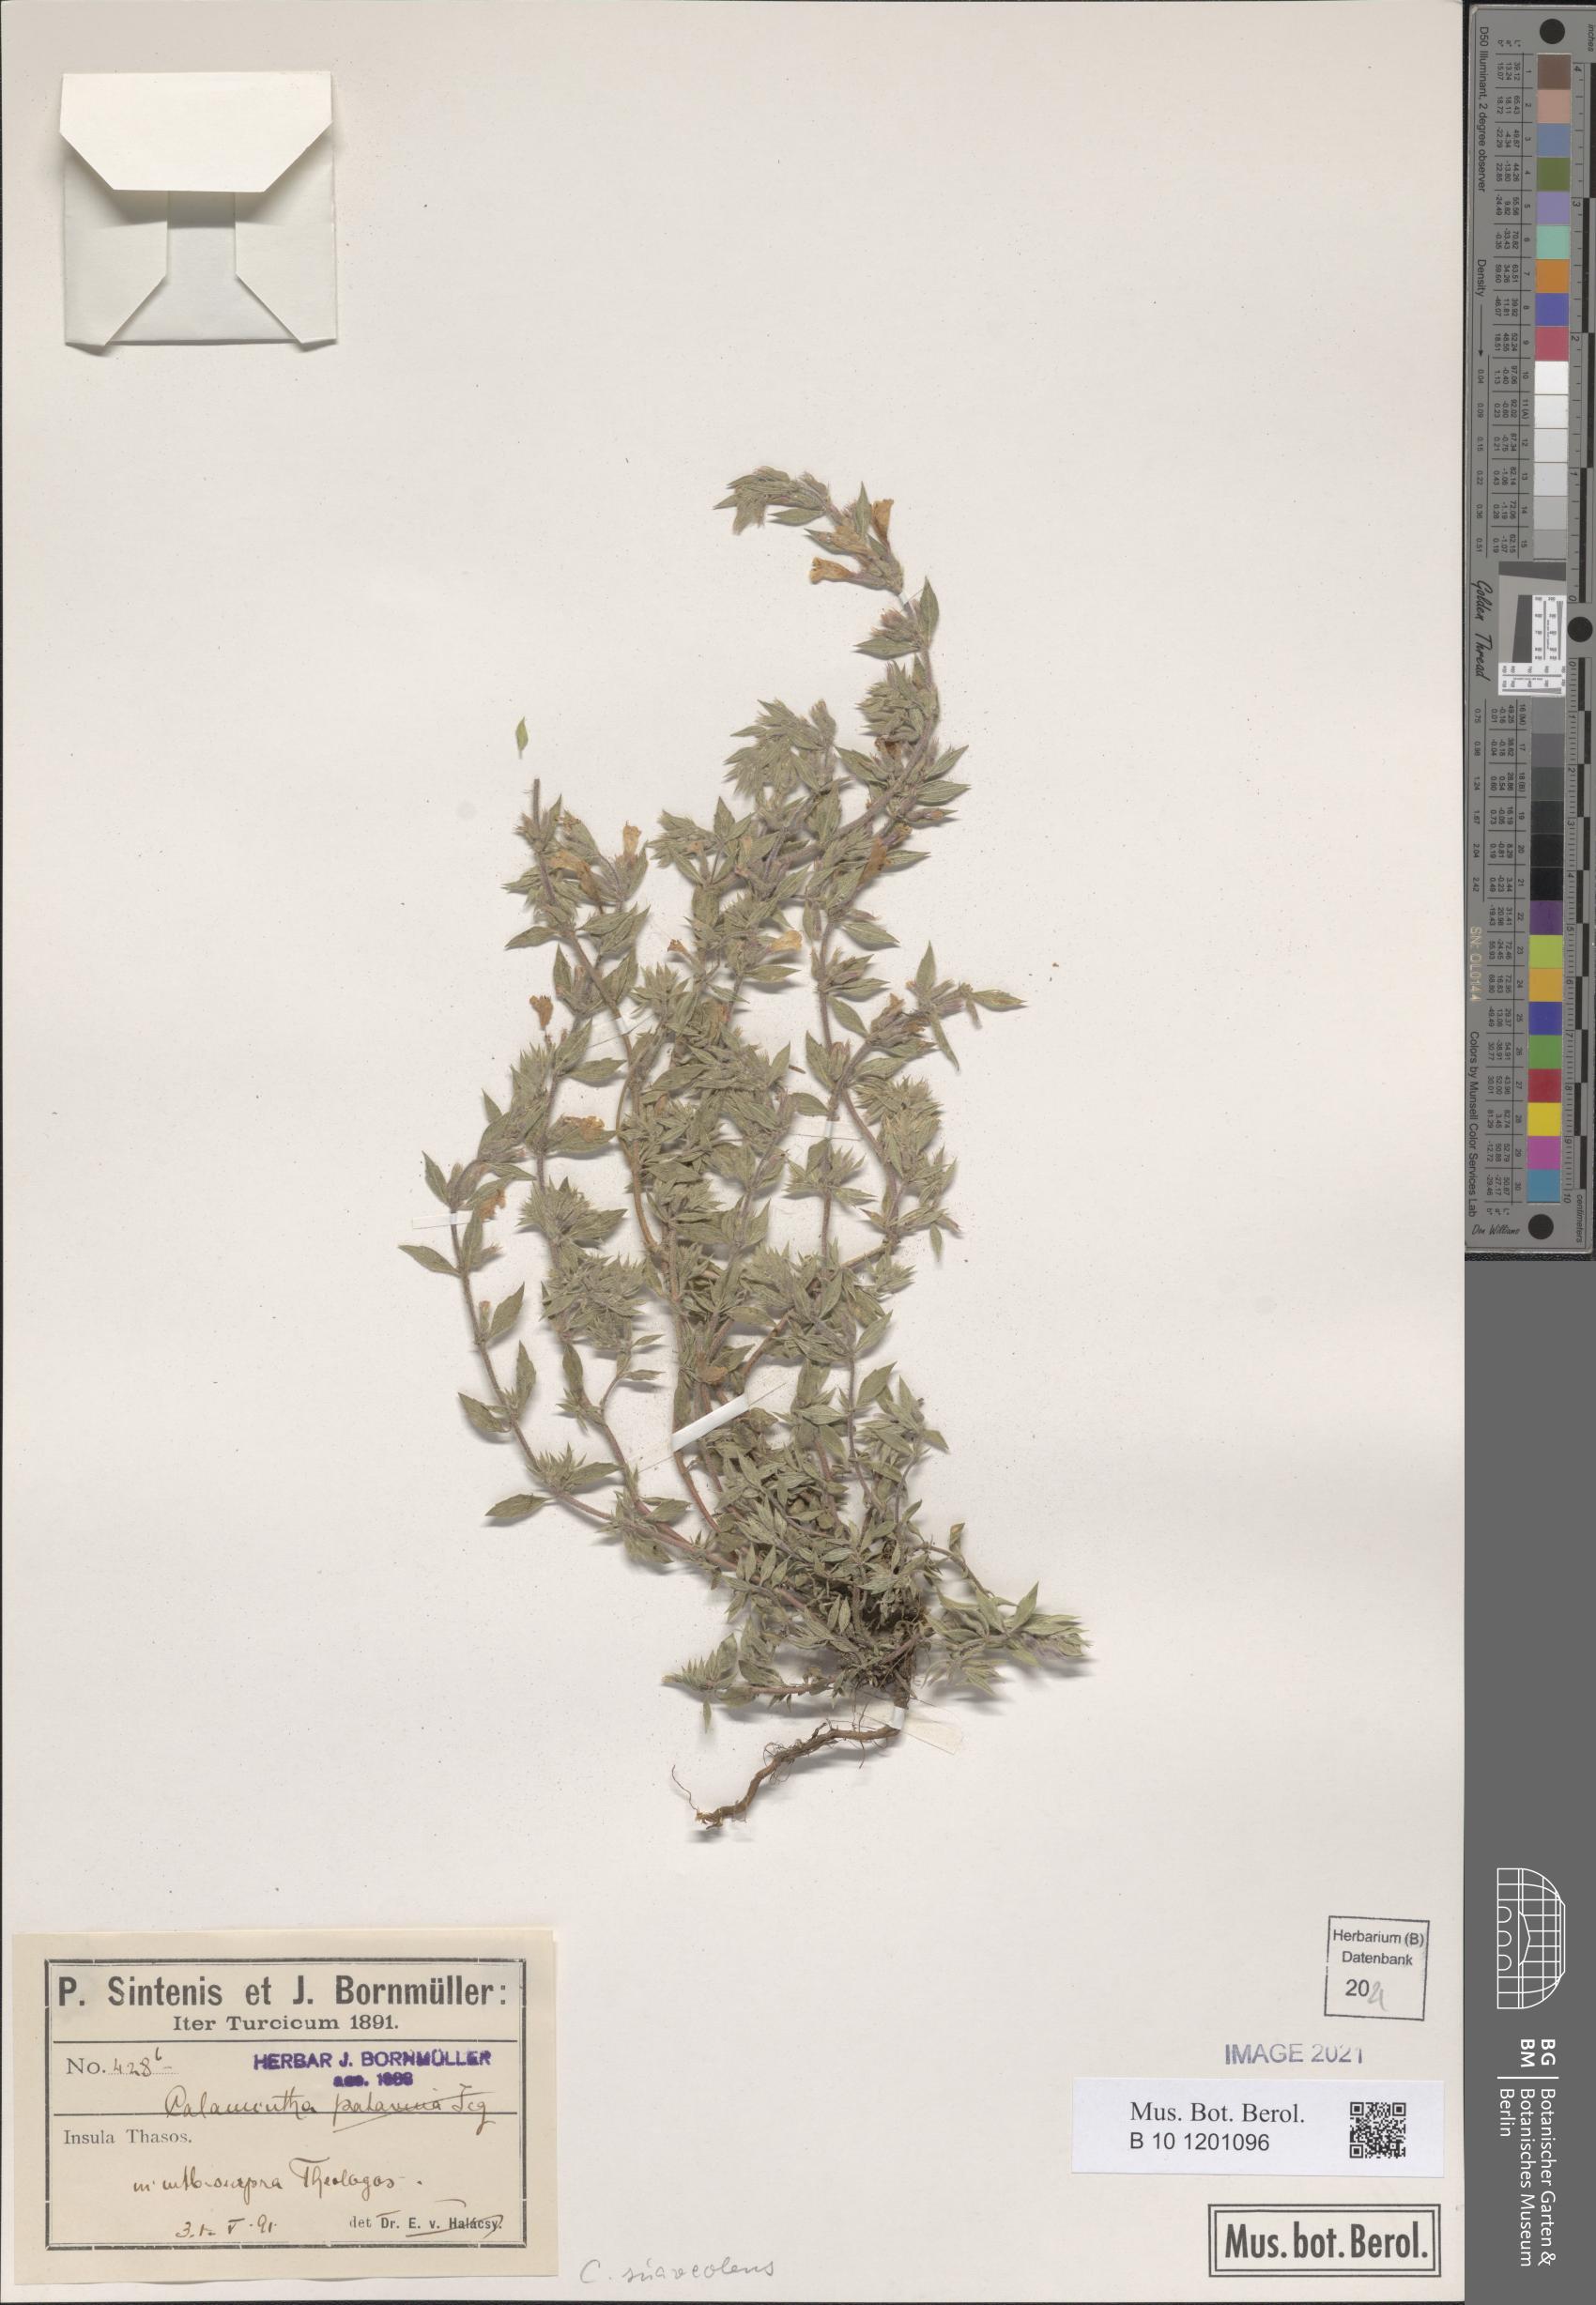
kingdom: Plantae
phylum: Tracheophyta
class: Magnoliopsida
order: Lamiales
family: Lamiaceae
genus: Clinopodium
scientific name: Clinopodium suaveolens
